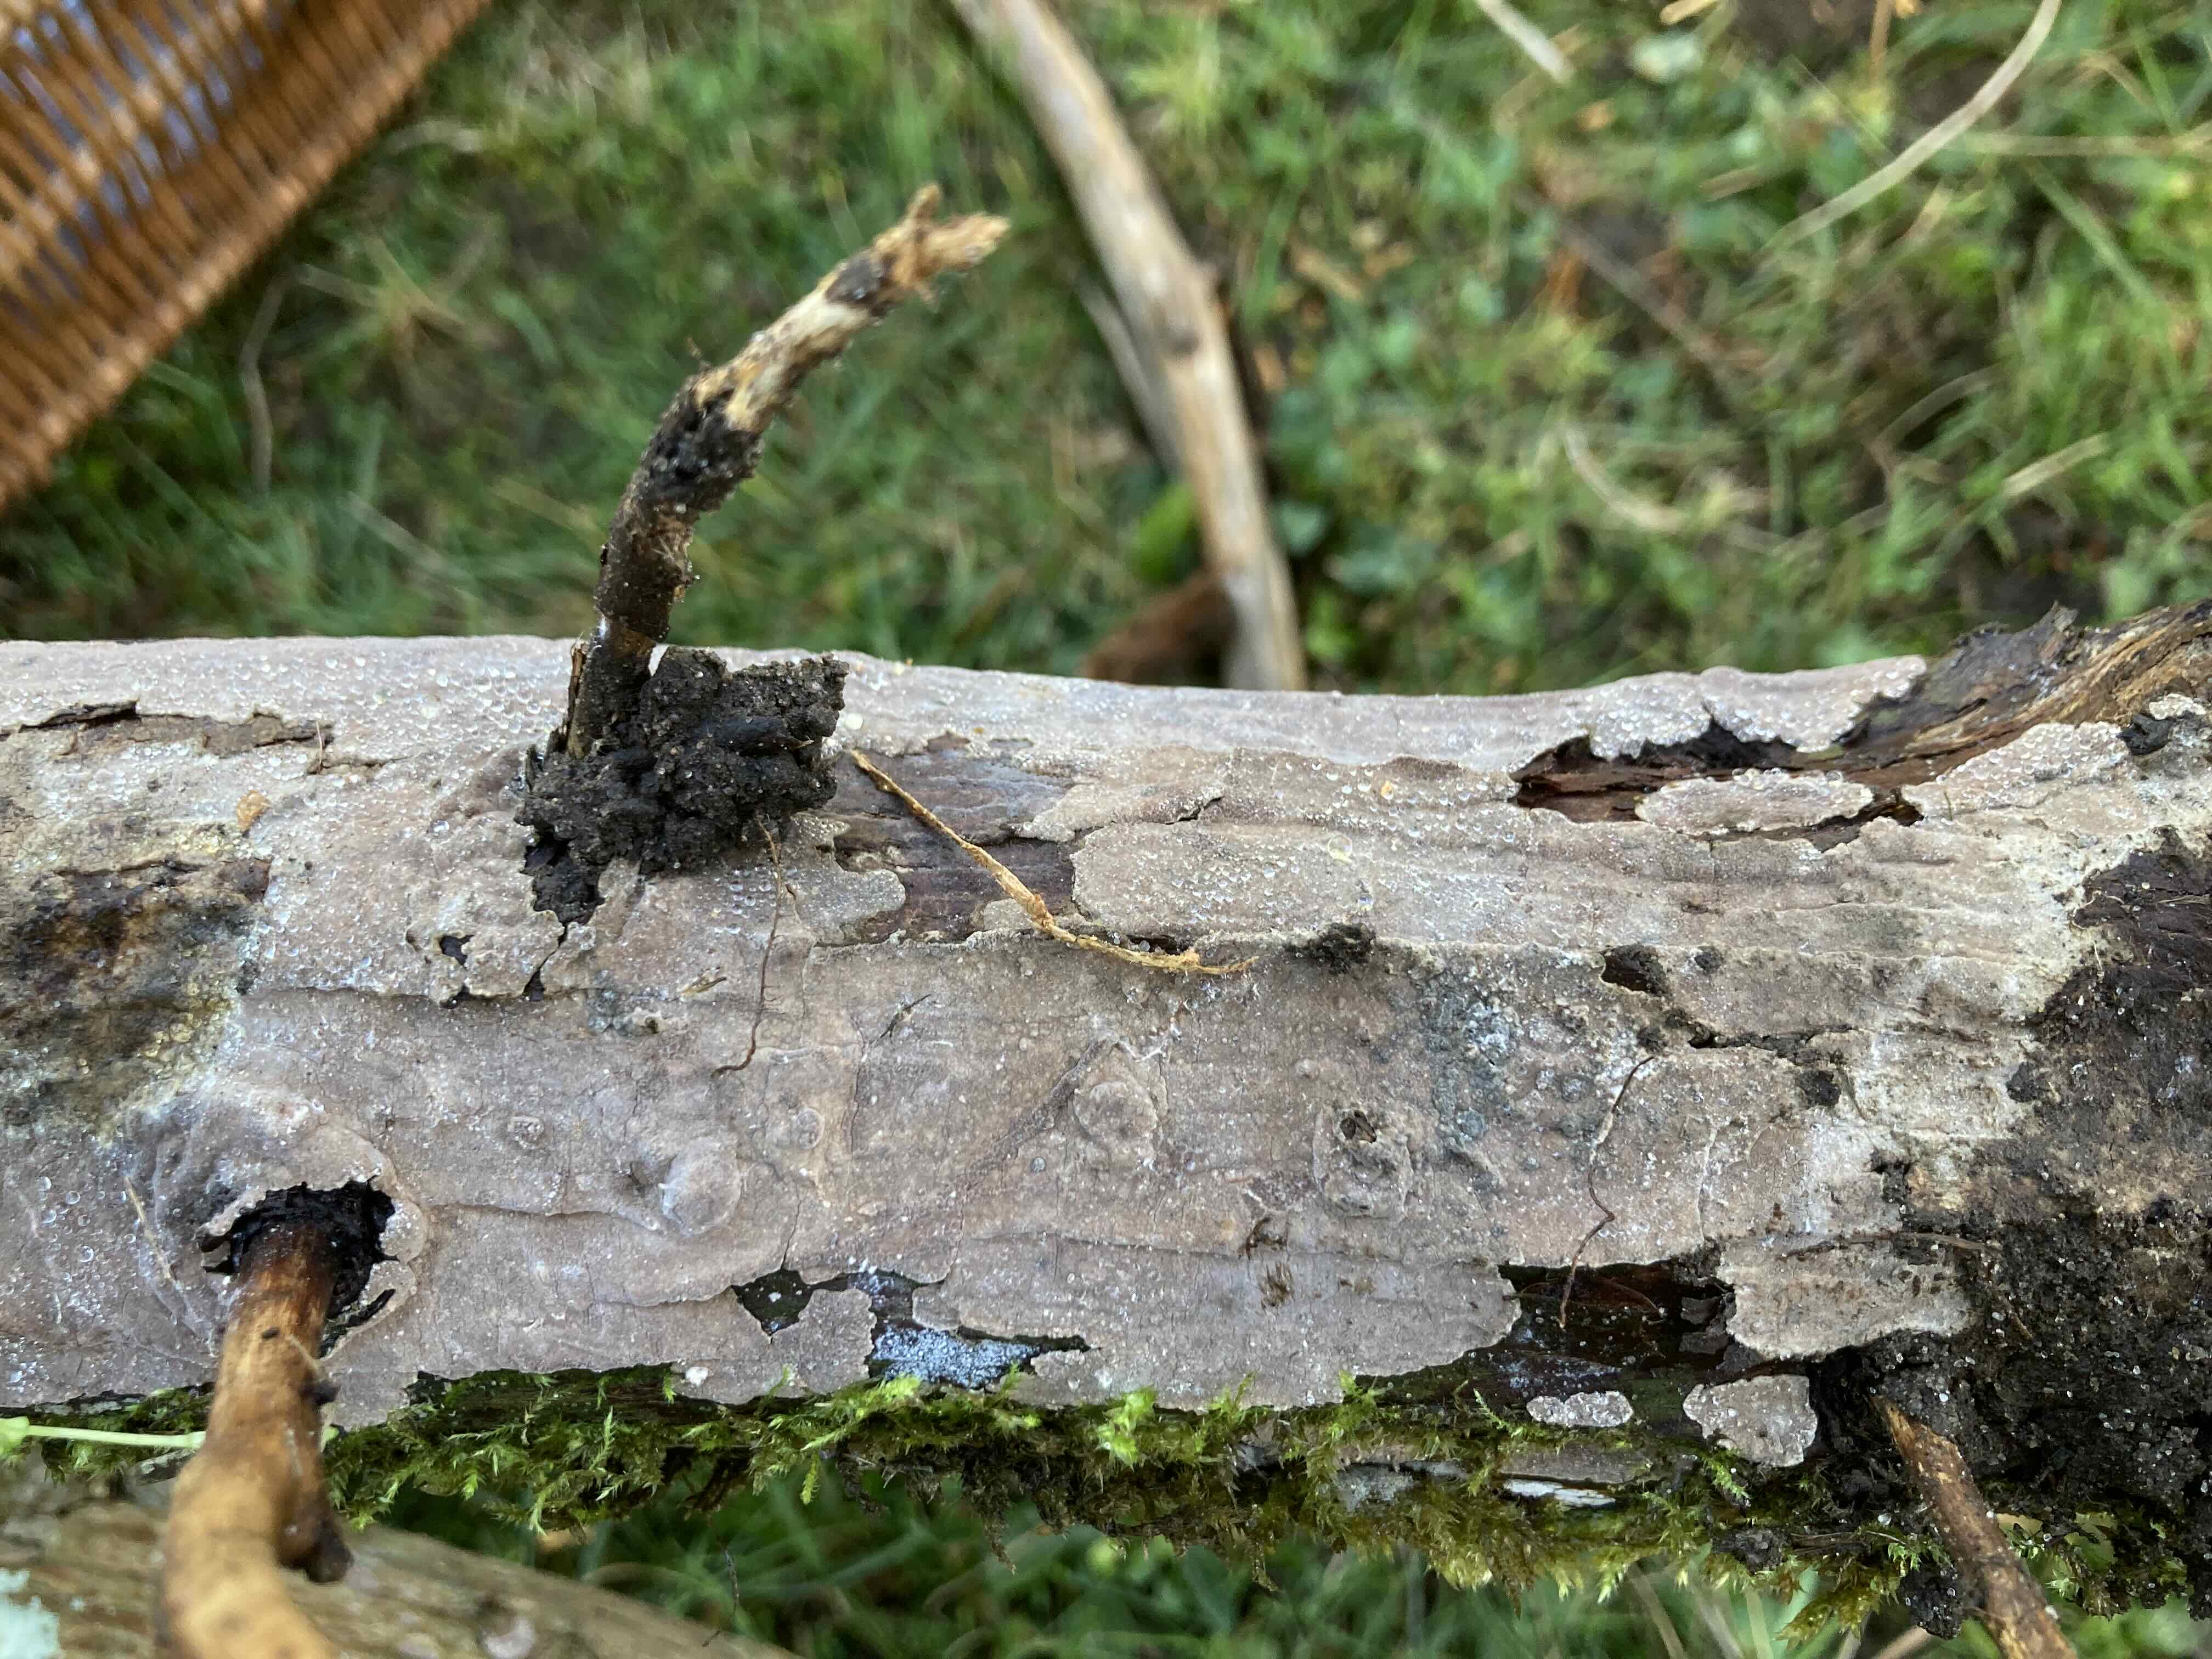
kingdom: Fungi
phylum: Basidiomycota
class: Agaricomycetes
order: Russulales
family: Echinodontiaceae
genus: Amylostereum
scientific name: Amylostereum laevigatum
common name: ene-lædersvamp
